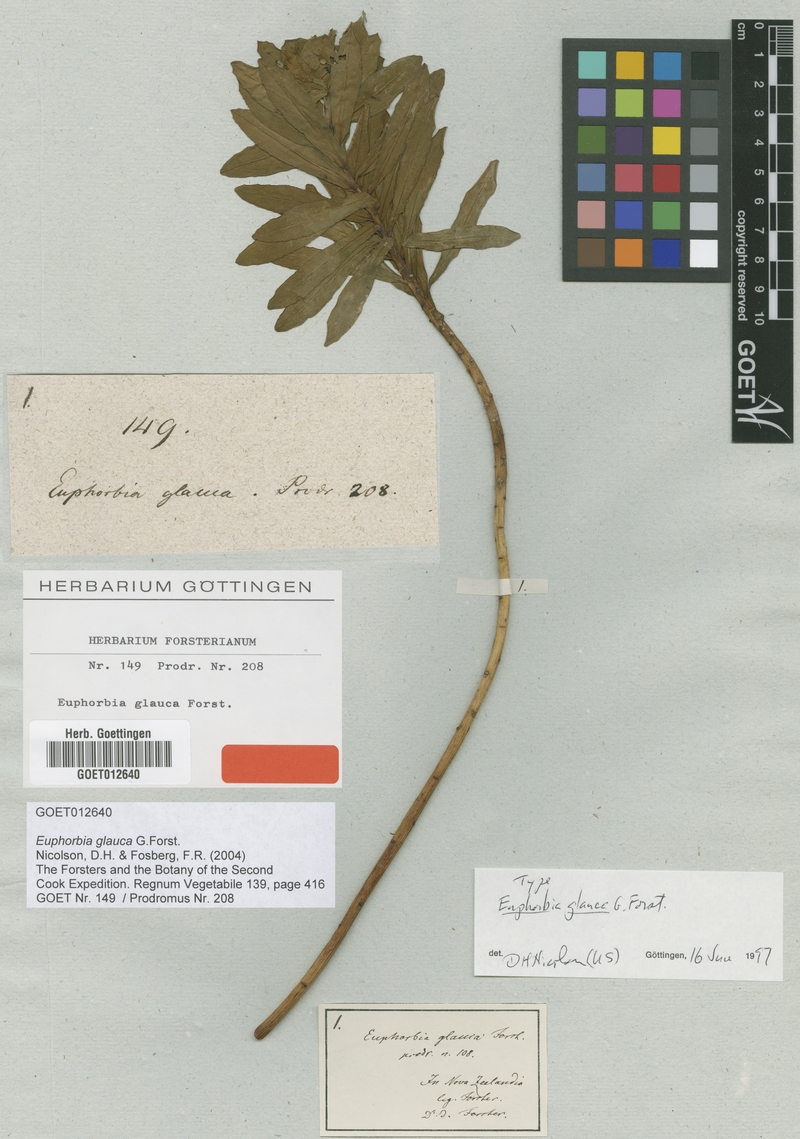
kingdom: Plantae
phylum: Tracheophyta
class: Magnoliopsida
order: Malpighiales
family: Euphorbiaceae
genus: Euphorbia
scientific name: Euphorbia glauca
